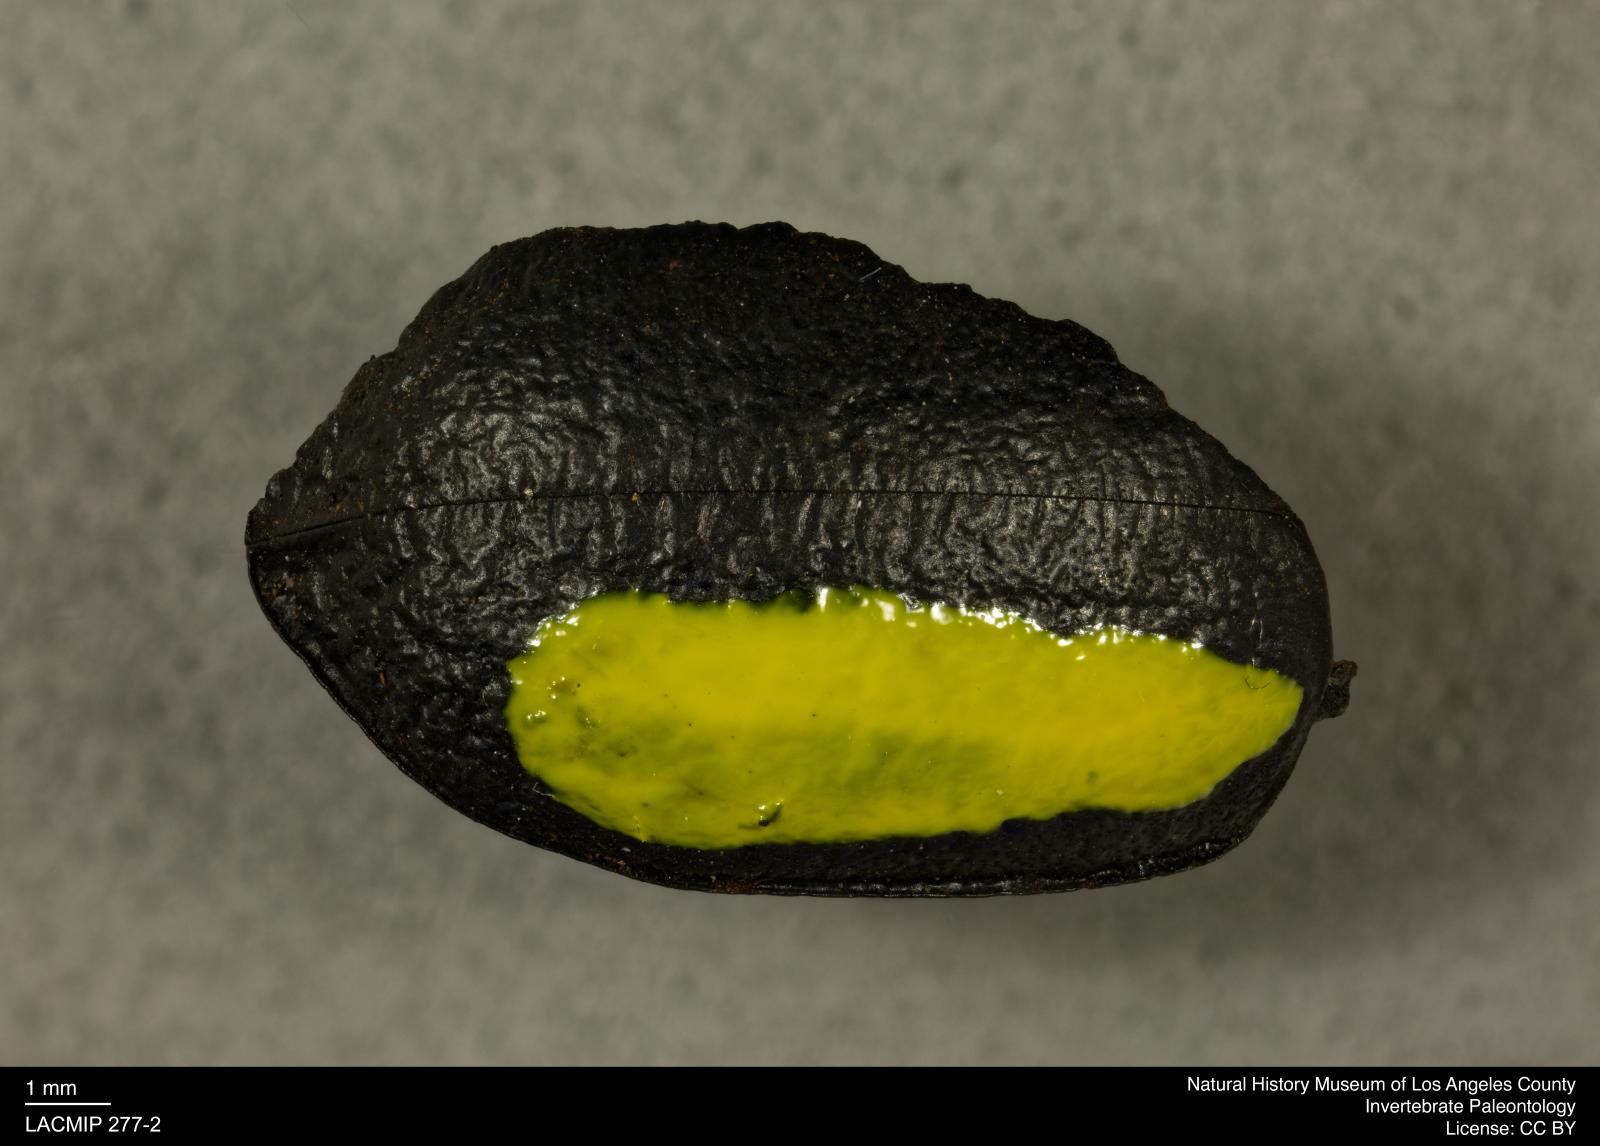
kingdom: Animalia
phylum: Arthropoda
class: Insecta
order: Coleoptera
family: Tenebrionidae
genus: Coniontis
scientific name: Coniontis abdominalis
